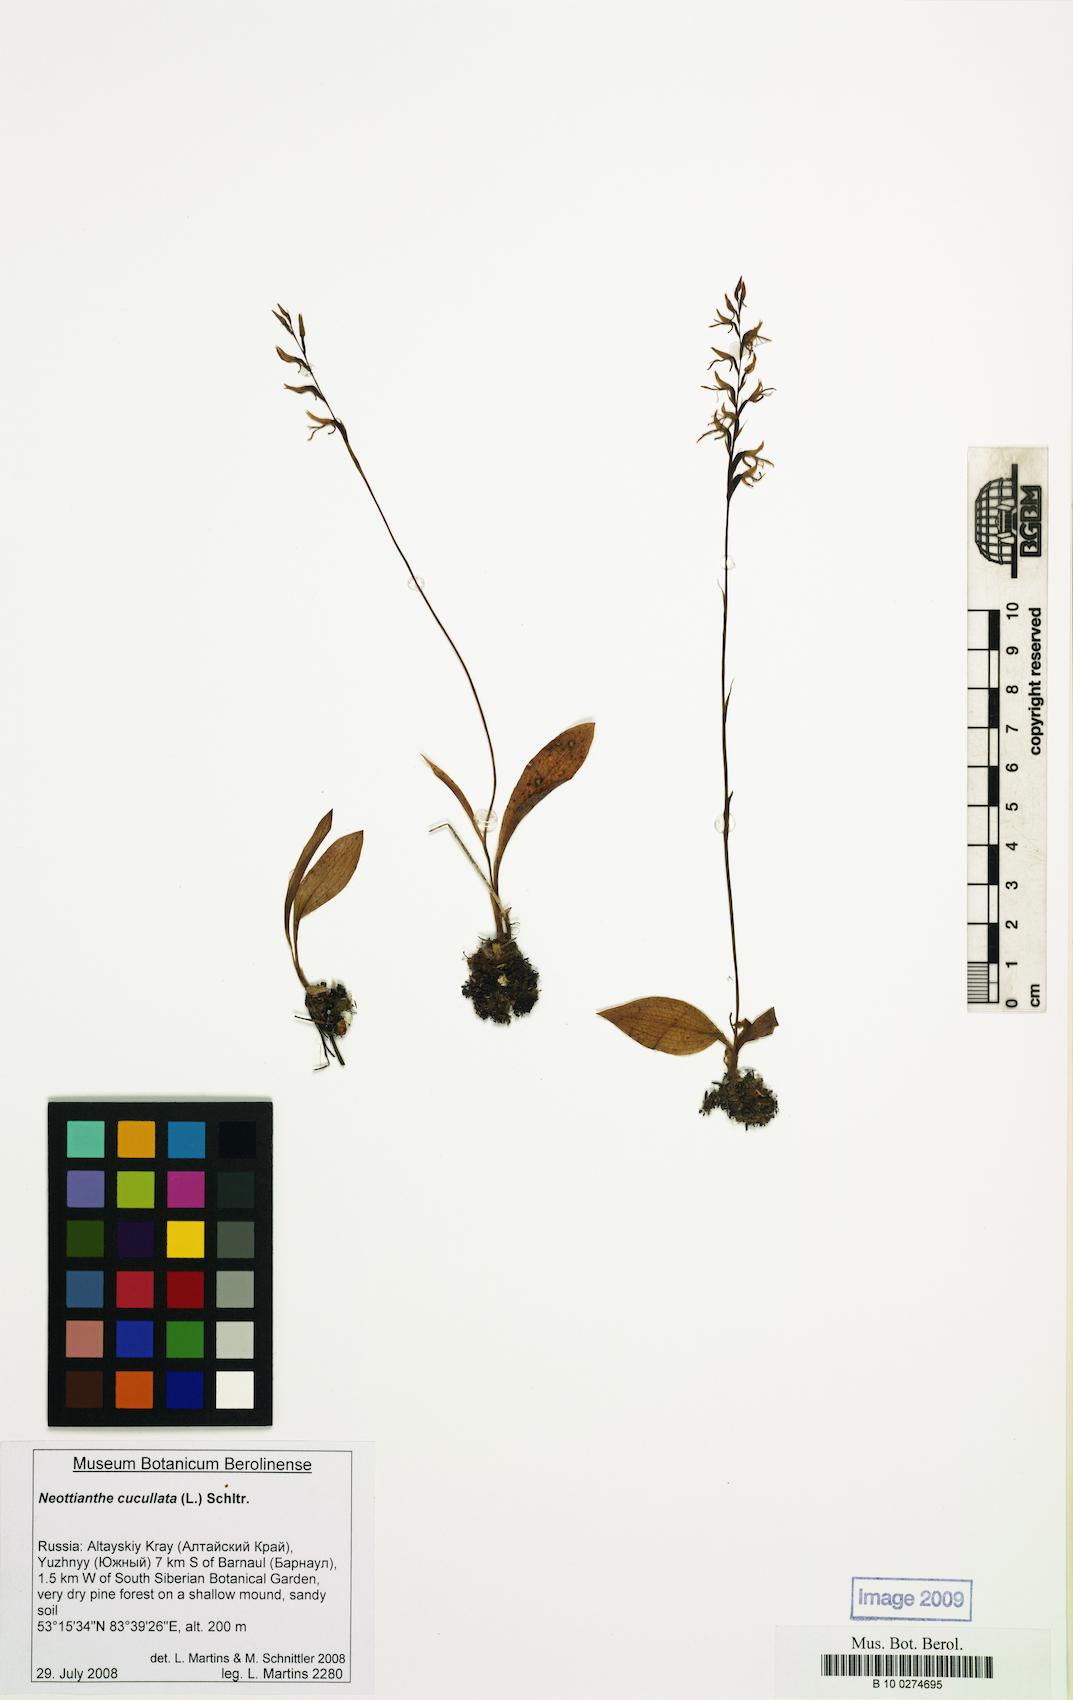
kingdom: Plantae
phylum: Tracheophyta
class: Liliopsida
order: Asparagales
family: Orchidaceae
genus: Hemipilia
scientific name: Hemipilia cucullata
